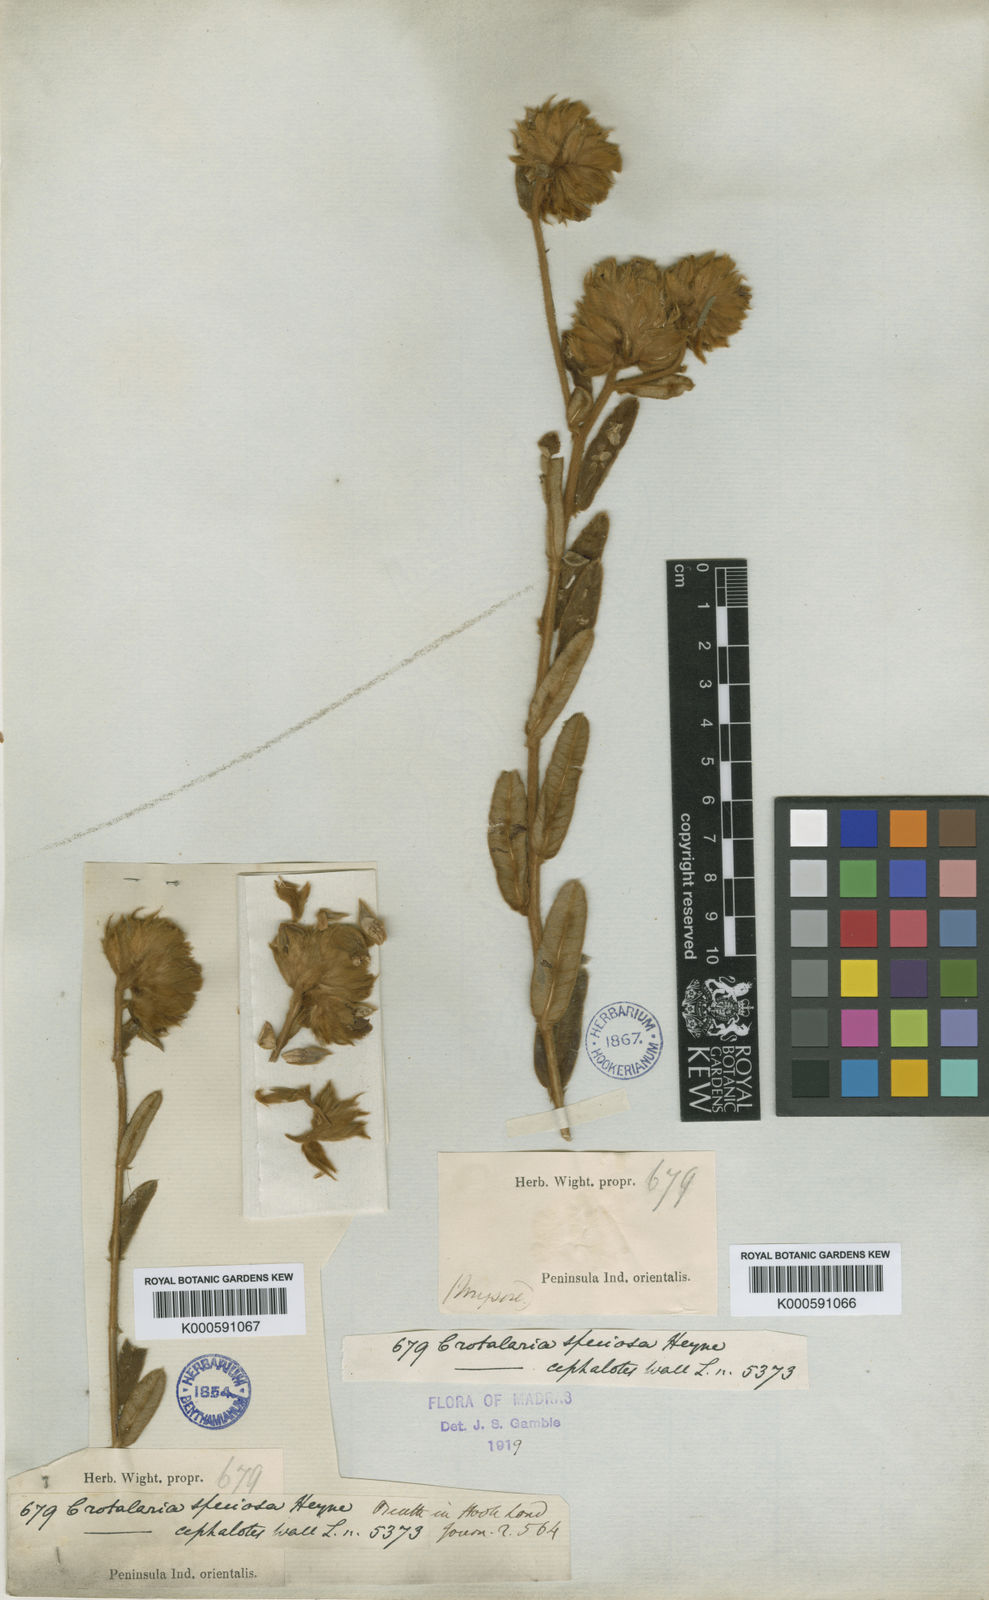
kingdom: Plantae
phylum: Tracheophyta
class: Magnoliopsida
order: Fabales
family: Fabaceae
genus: Crotalaria
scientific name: Crotalaria speciosa
